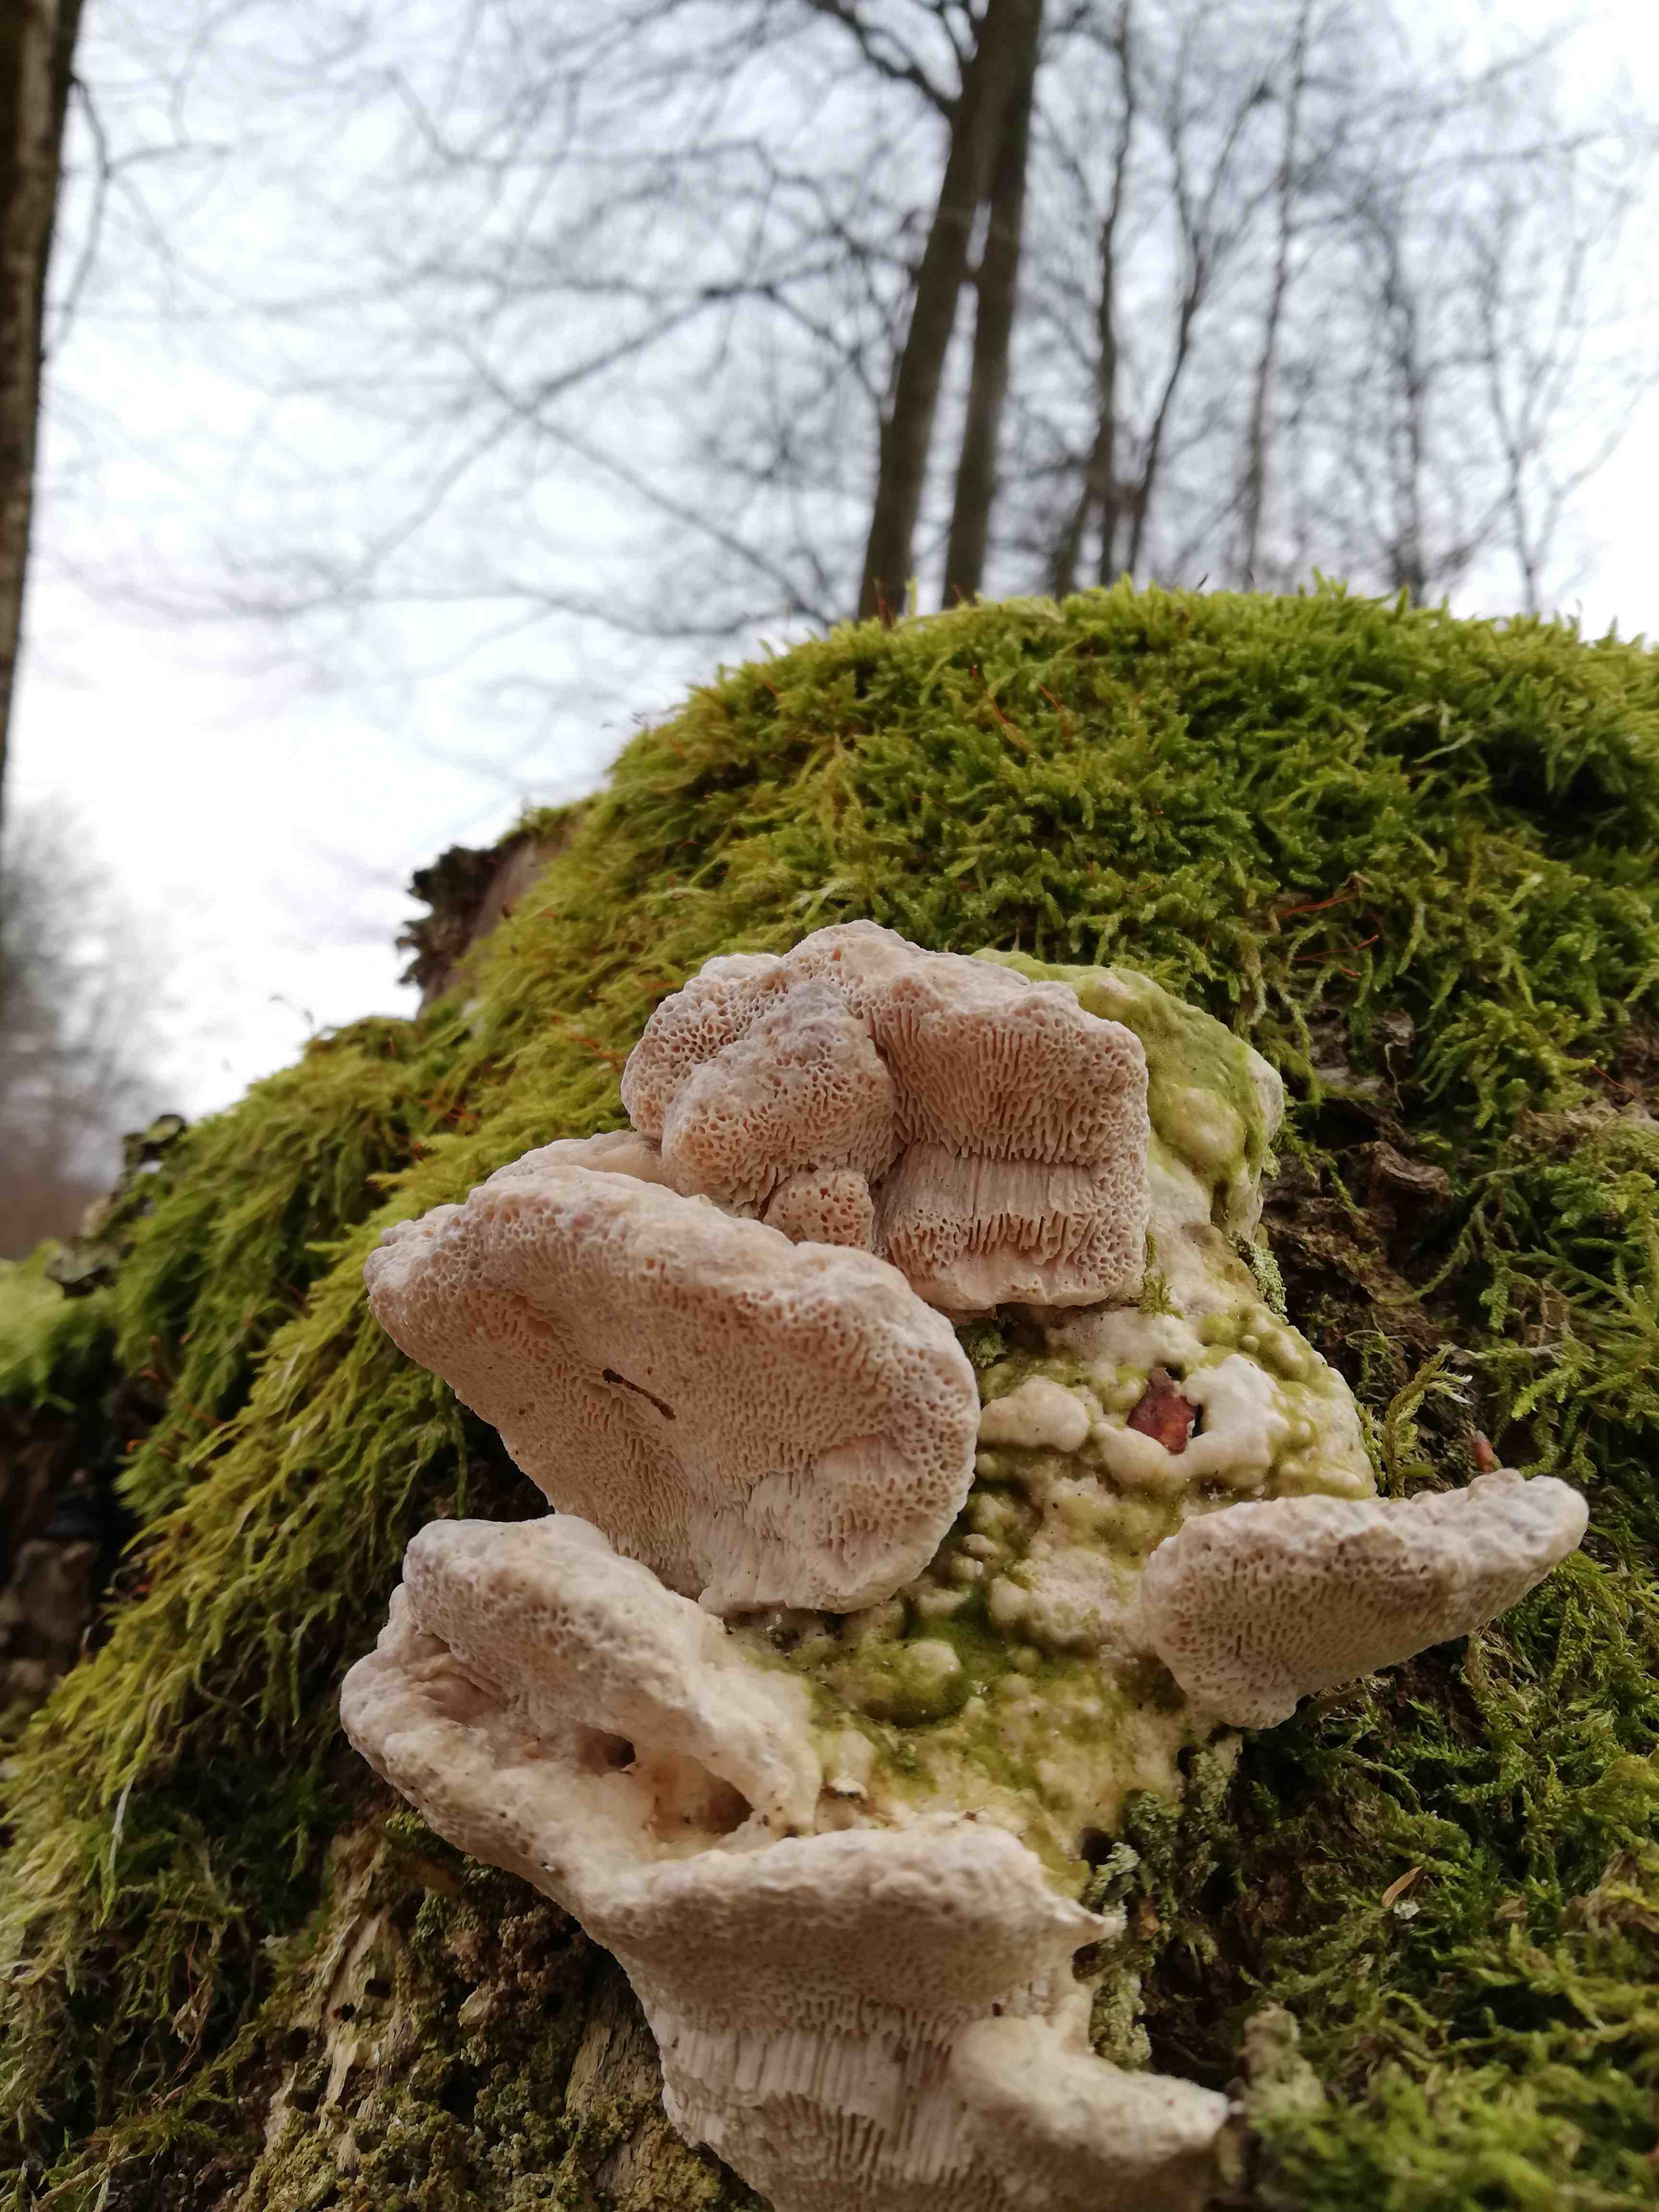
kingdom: Fungi
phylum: Basidiomycota
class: Agaricomycetes
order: Polyporales
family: Polyporaceae
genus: Trametes
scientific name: Trametes gibbosa
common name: puklet læderporesvamp
